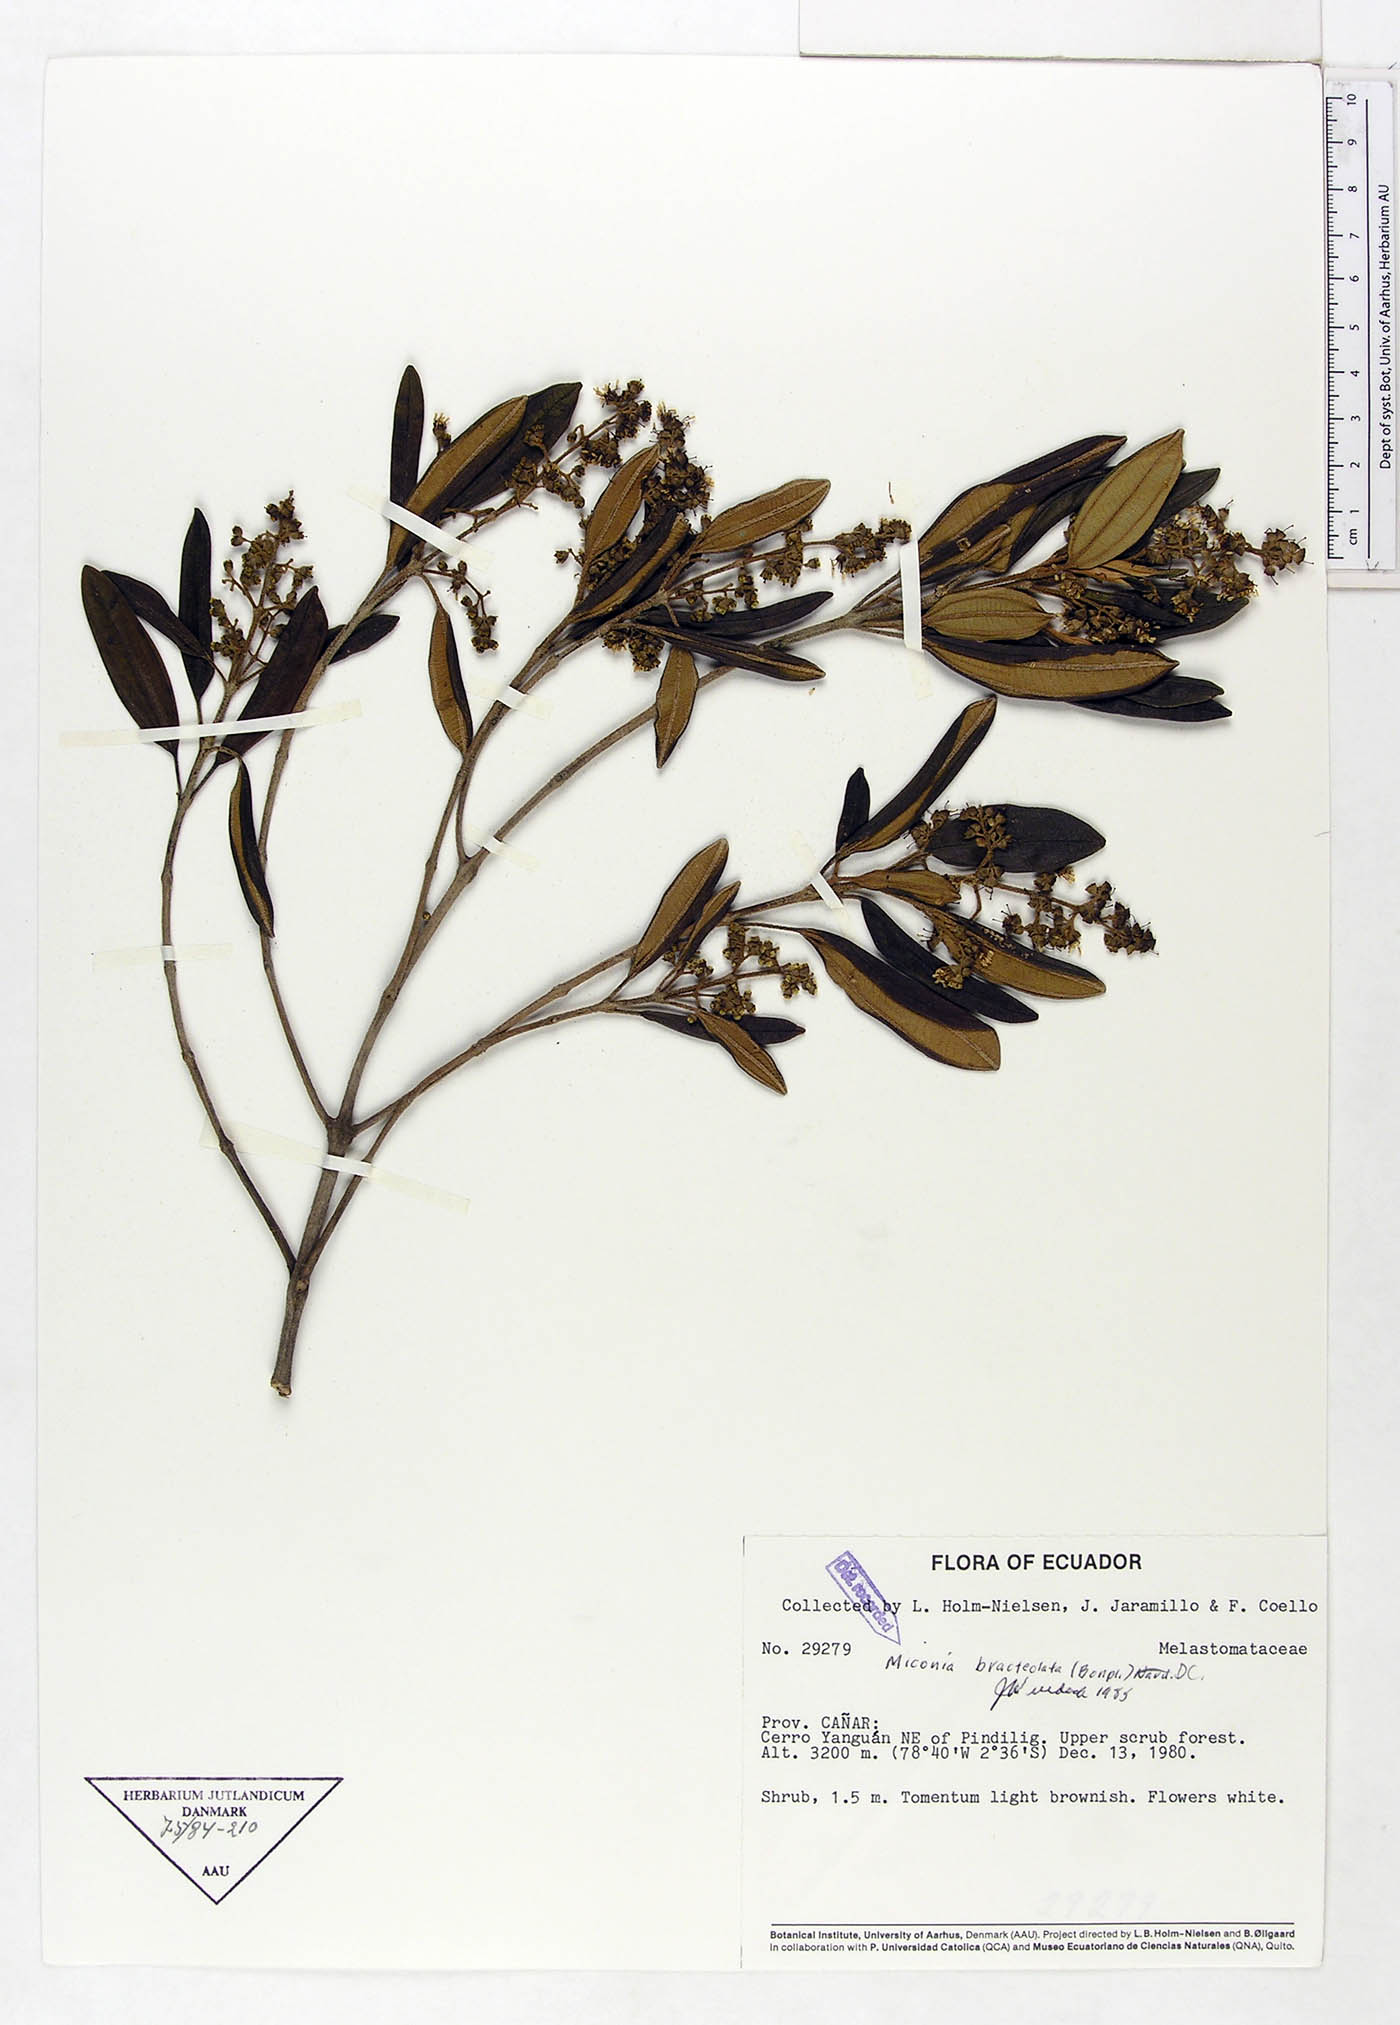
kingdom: Plantae
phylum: Tracheophyta
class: Magnoliopsida
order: Myrtales
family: Melastomataceae
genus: Miconia
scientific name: Miconia bracteolata
